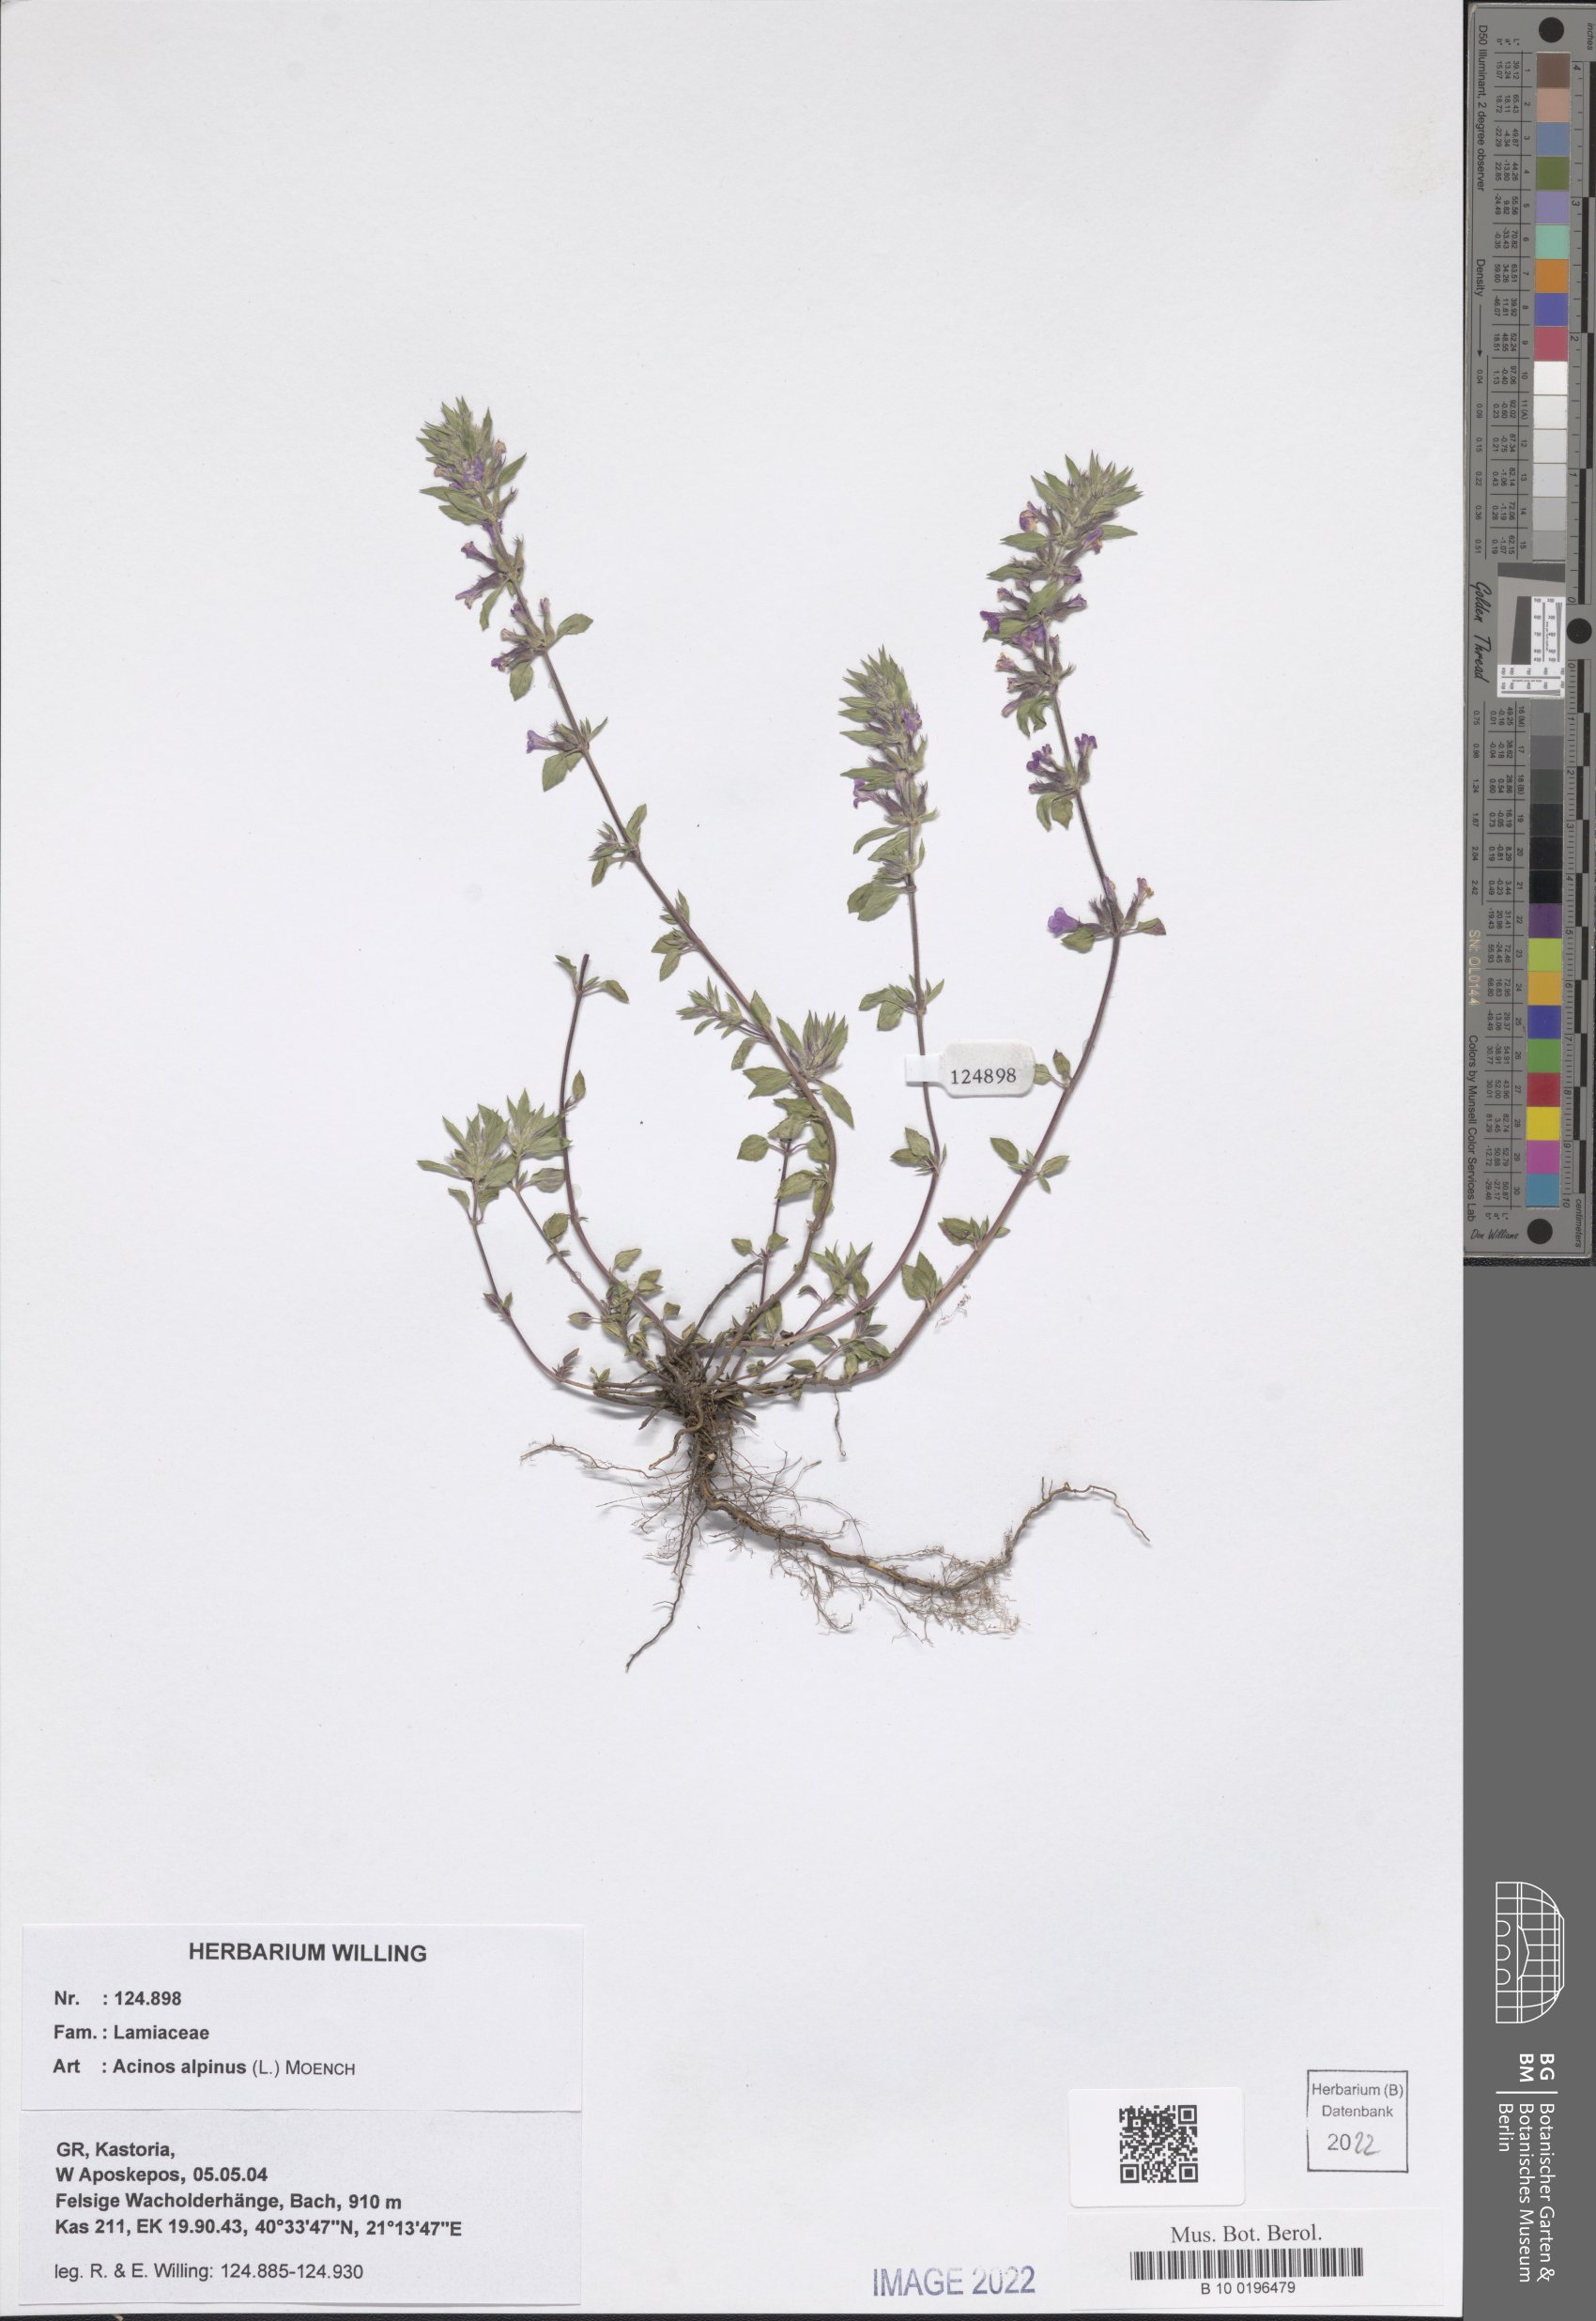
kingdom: Plantae
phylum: Tracheophyta
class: Magnoliopsida
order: Lamiales
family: Lamiaceae
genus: Clinopodium
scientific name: Clinopodium alpinum
